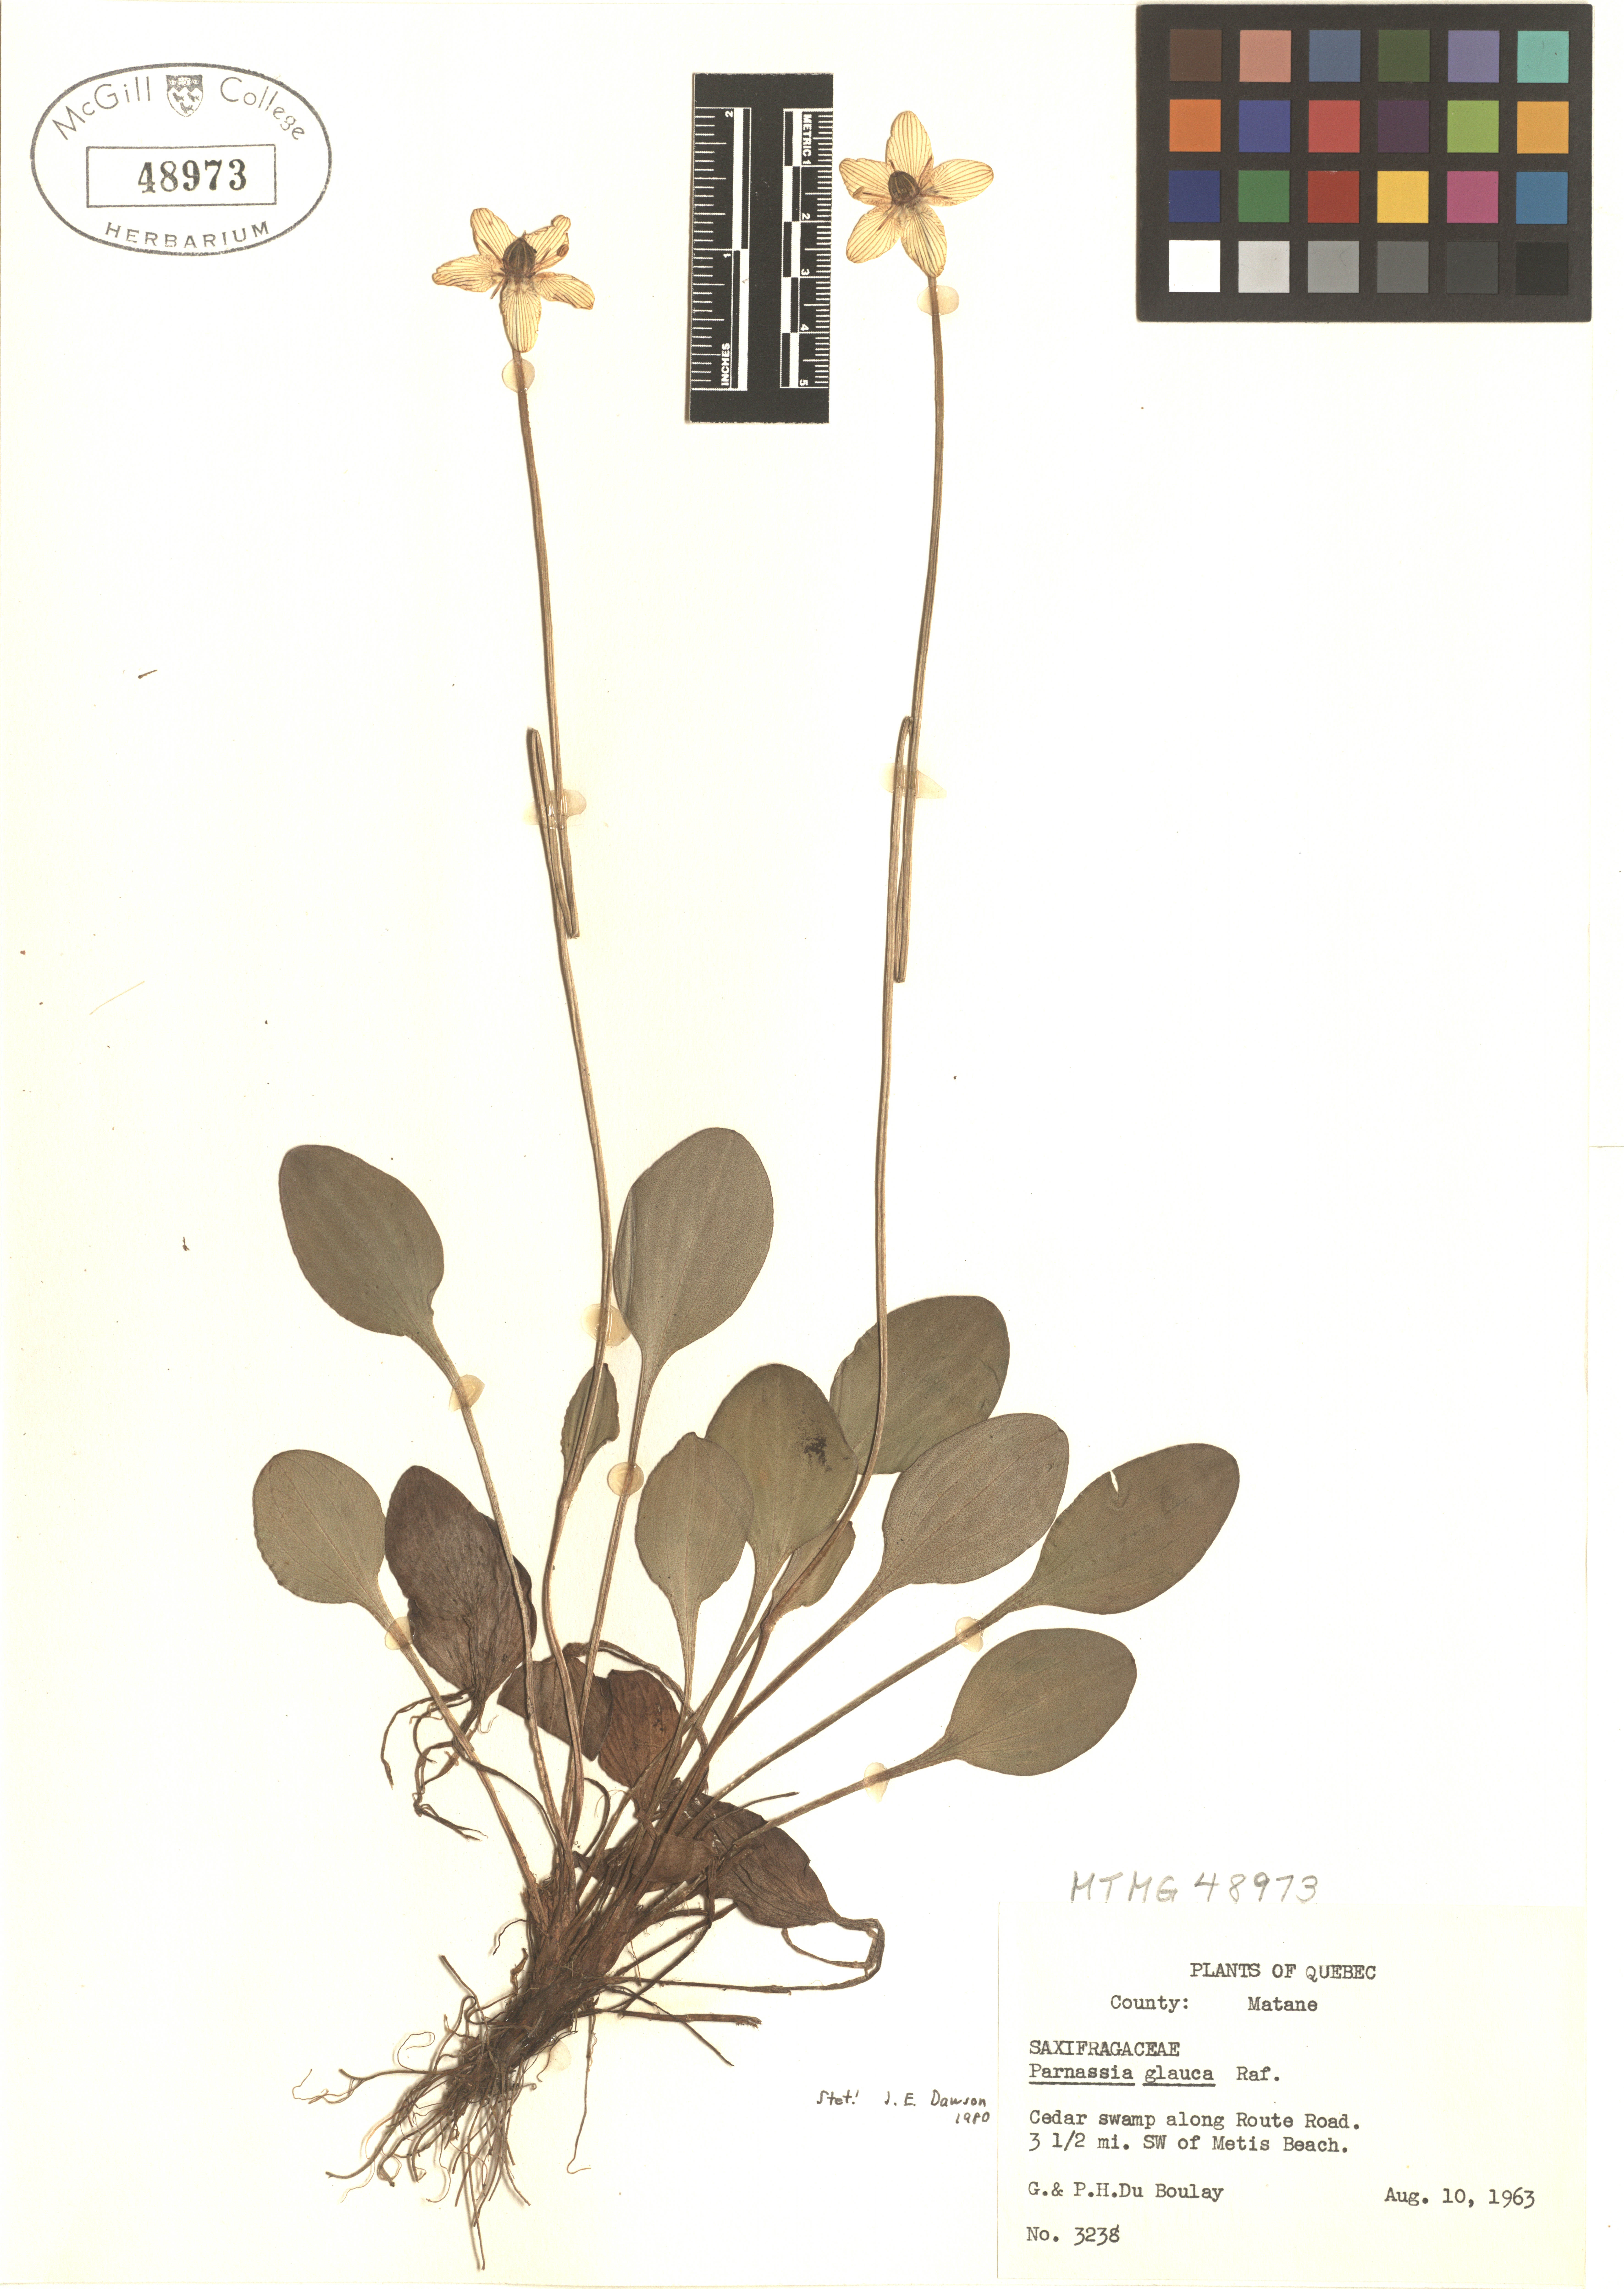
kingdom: Plantae
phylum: Tracheophyta
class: Magnoliopsida
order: Celastrales
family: Parnassiaceae
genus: Parnassia
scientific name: Parnassia glauca
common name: American grass-of-parnassus
